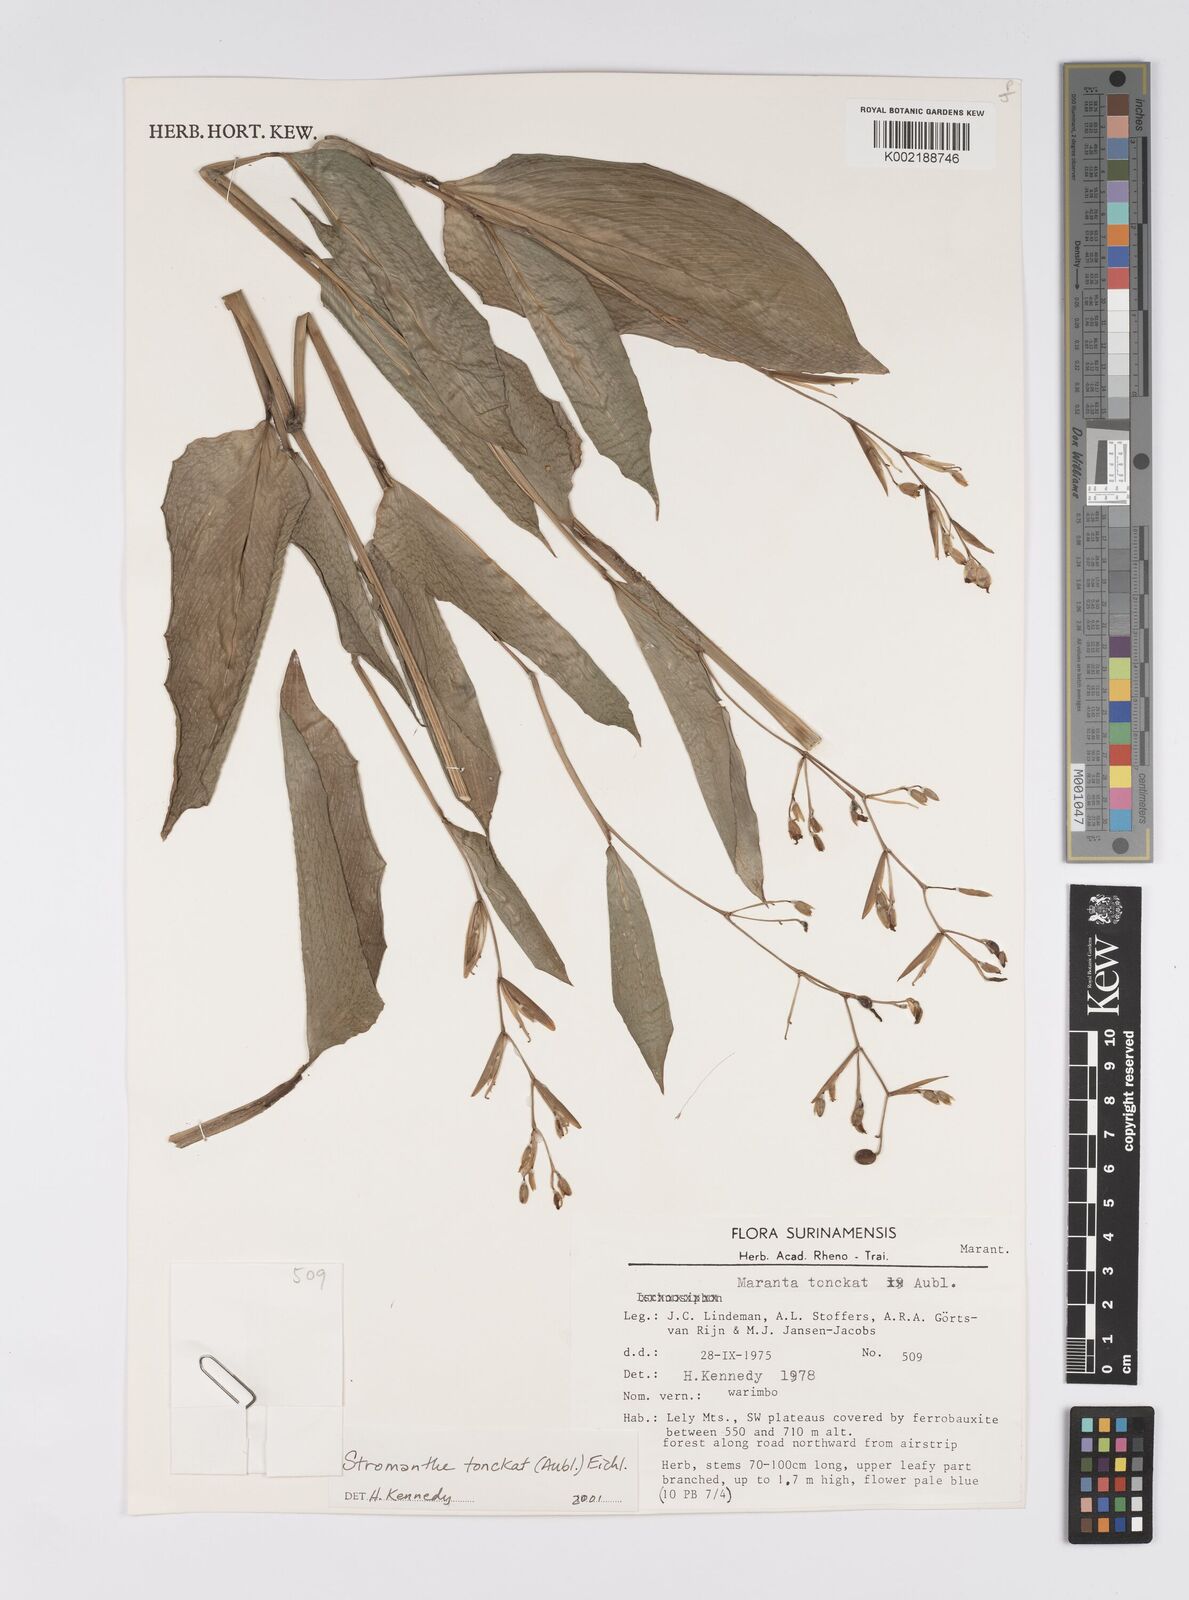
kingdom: Plantae
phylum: Tracheophyta
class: Liliopsida
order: Zingiberales
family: Marantaceae
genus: Stromanthe
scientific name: Stromanthe tonckat
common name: Stromanthe
